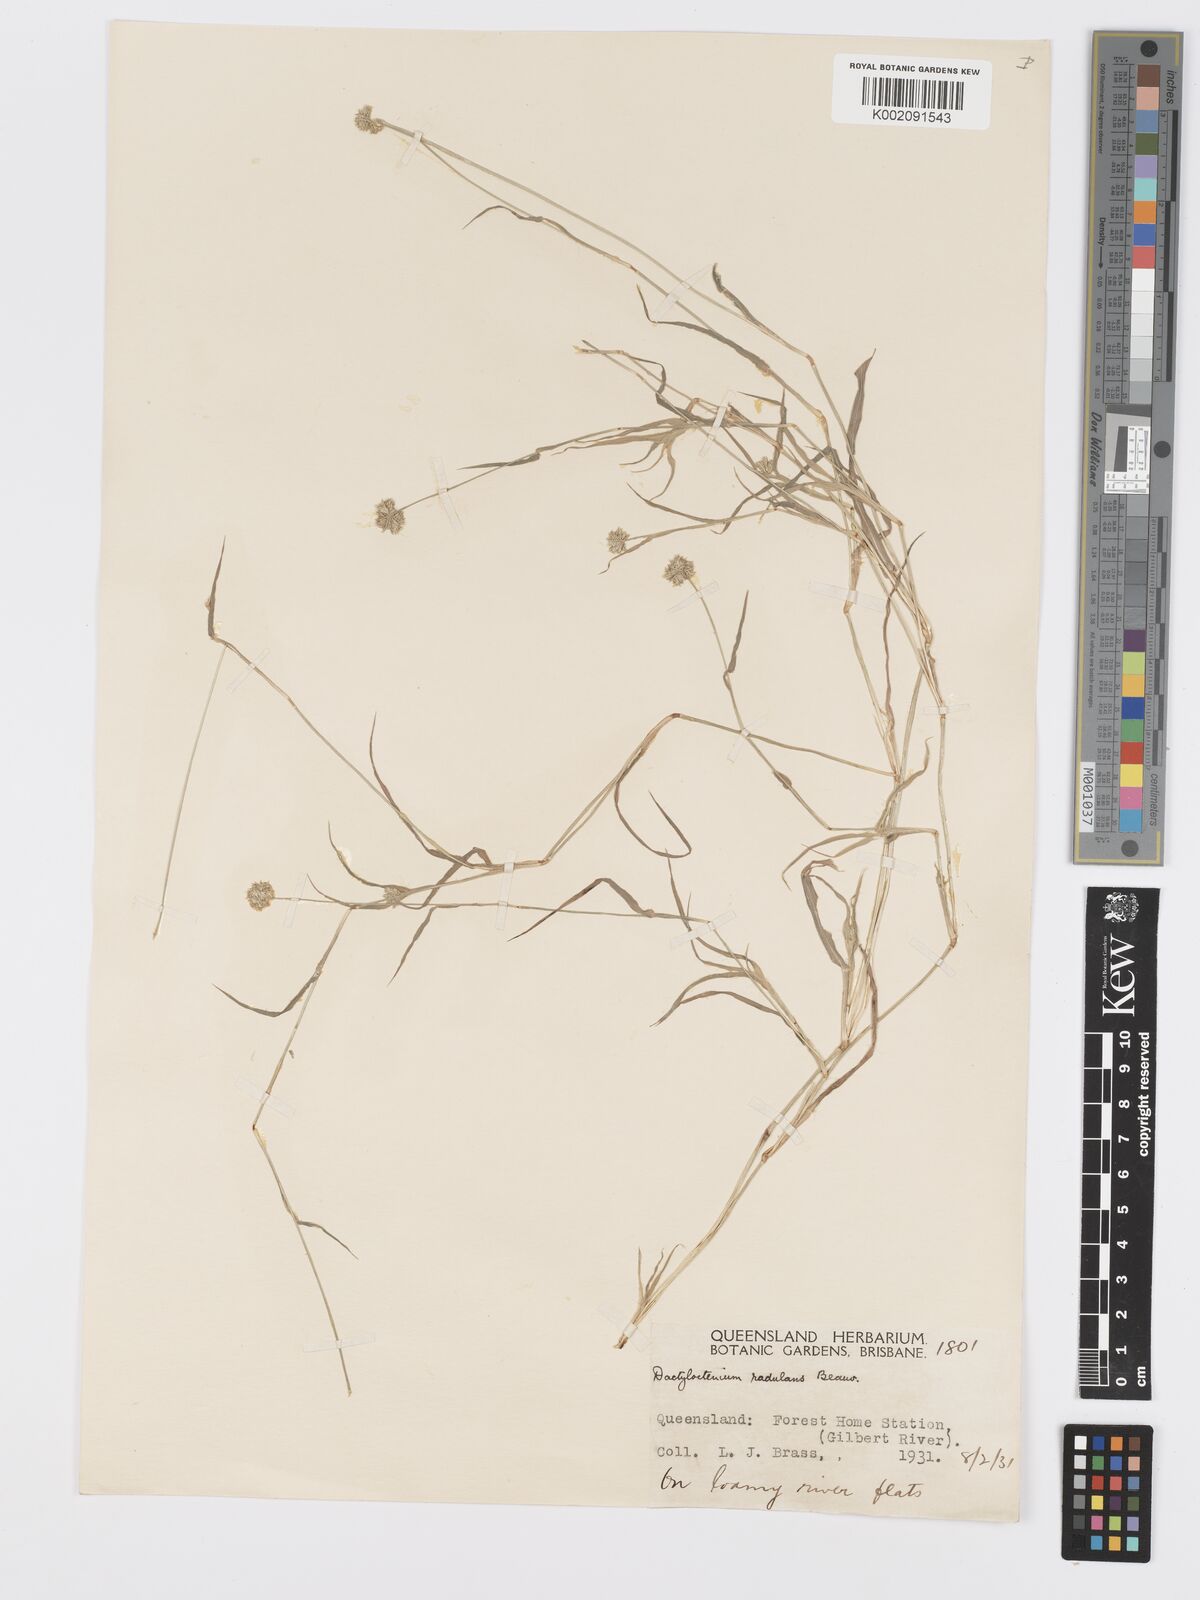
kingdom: Plantae
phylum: Tracheophyta
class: Liliopsida
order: Poales
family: Poaceae
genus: Dactyloctenium
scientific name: Dactyloctenium radulans
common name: Button-grass
